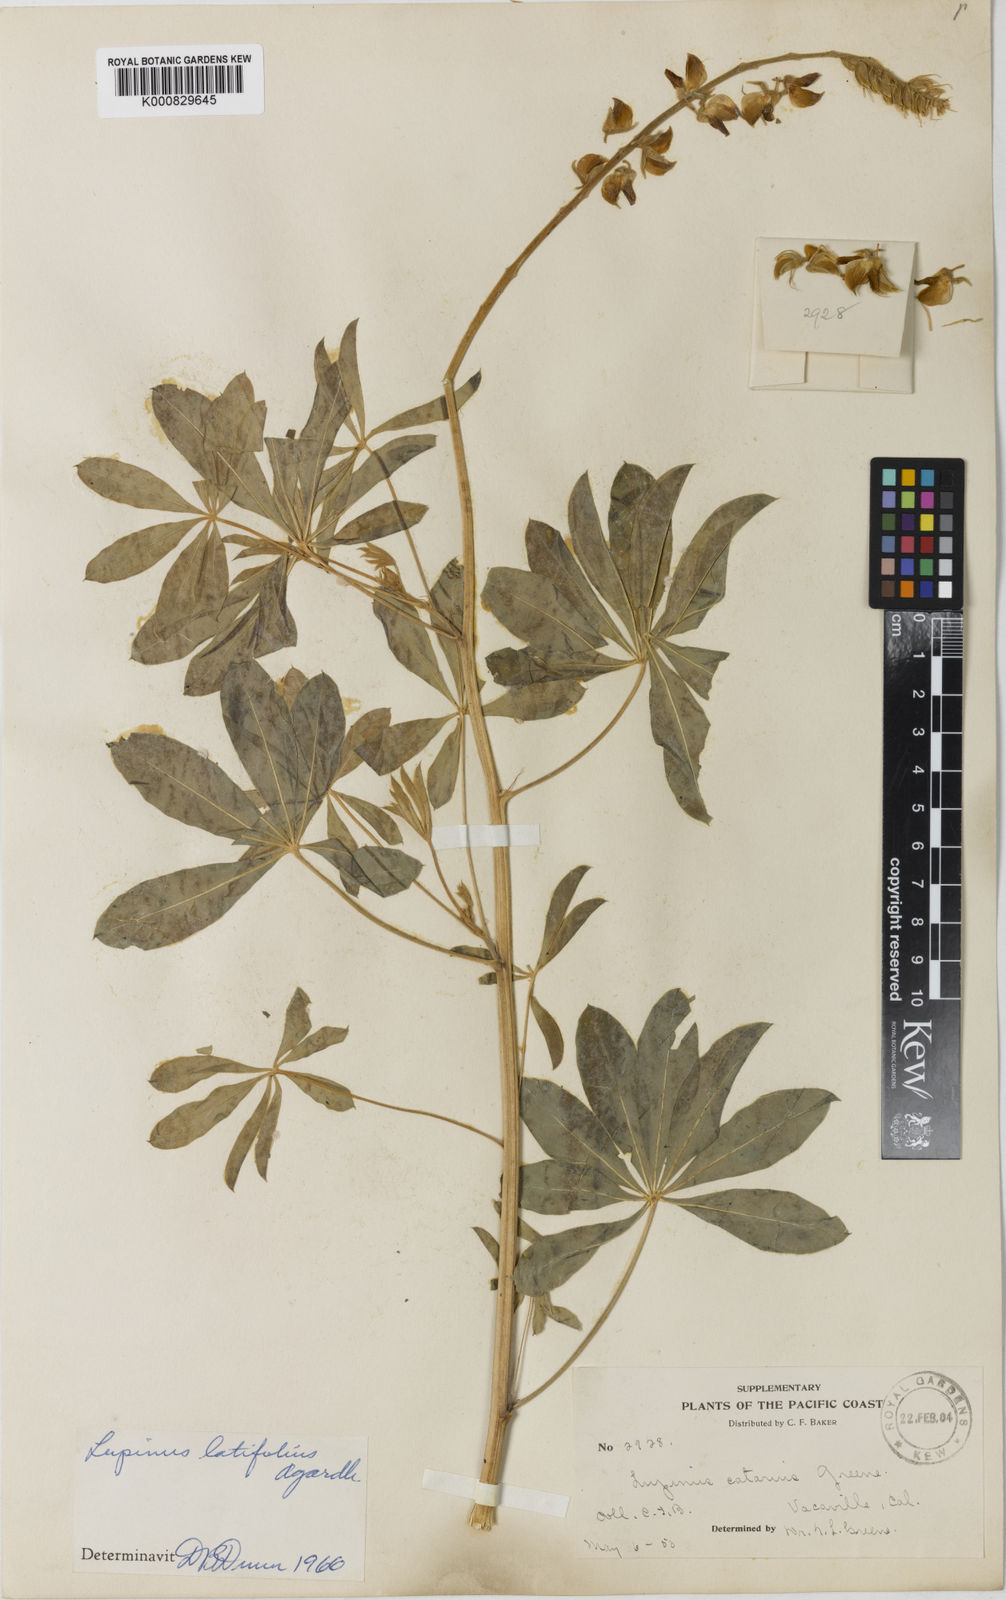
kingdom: Plantae
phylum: Tracheophyta
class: Magnoliopsida
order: Fabales
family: Fabaceae
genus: Lupinus
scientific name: Lupinus latifolius
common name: Broad-leaved lupine
